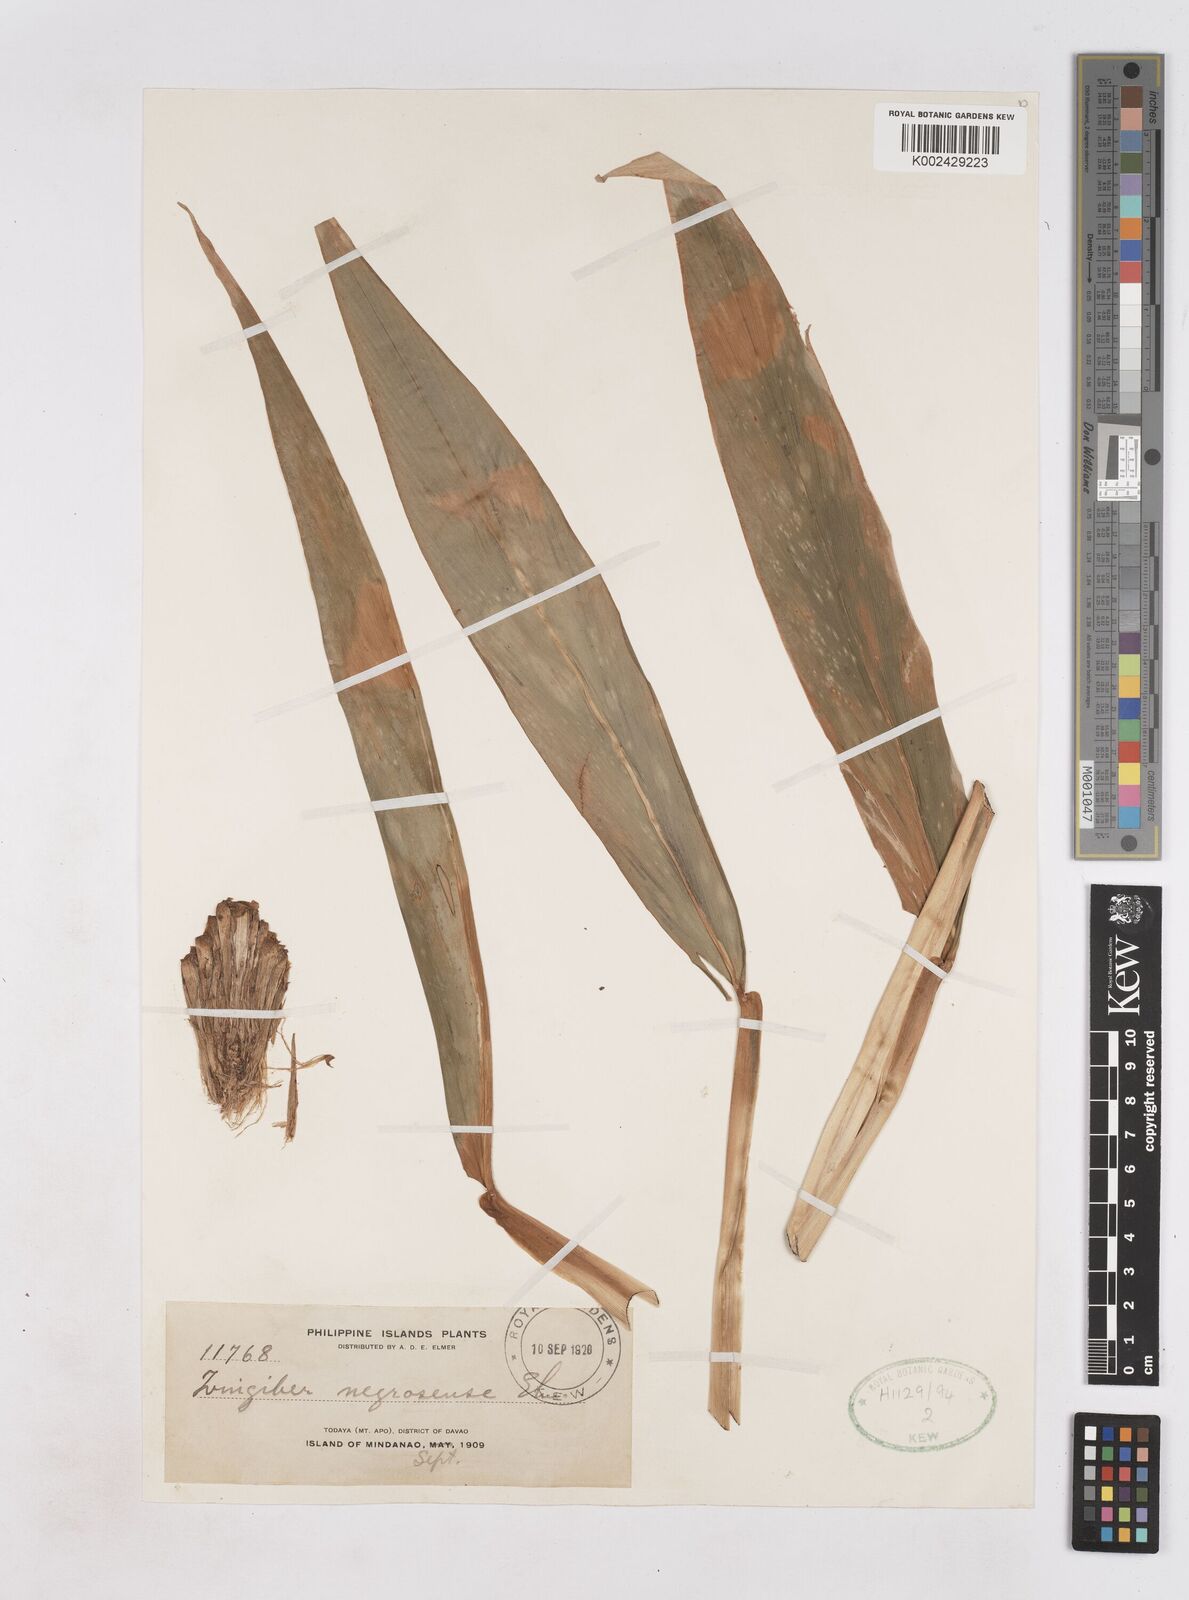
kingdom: Plantae
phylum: Tracheophyta
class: Liliopsida
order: Zingiberales
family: Zingiberaceae
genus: Zingiber
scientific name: Zingiber negrosense
